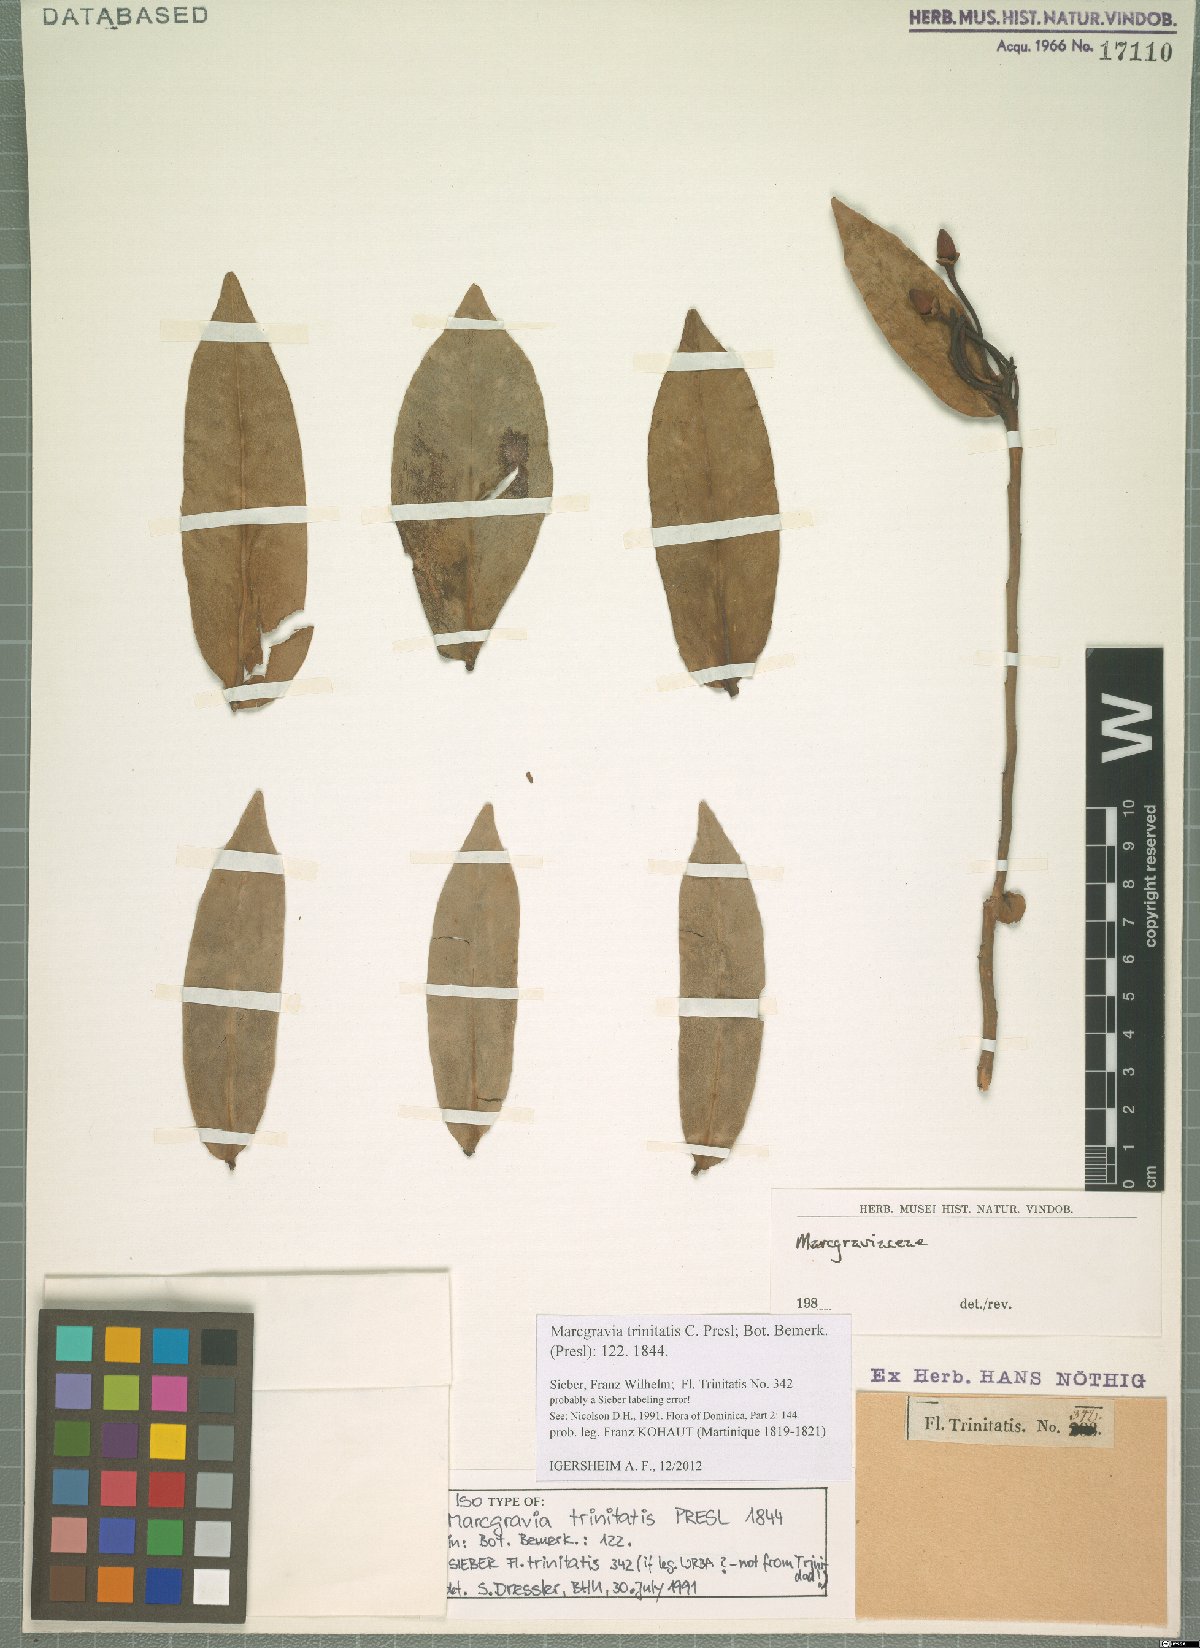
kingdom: Plantae
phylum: Tracheophyta
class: Magnoliopsida
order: Ericales
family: Marcgraviaceae
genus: Marcgravia
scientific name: Marcgravia trinitatis
